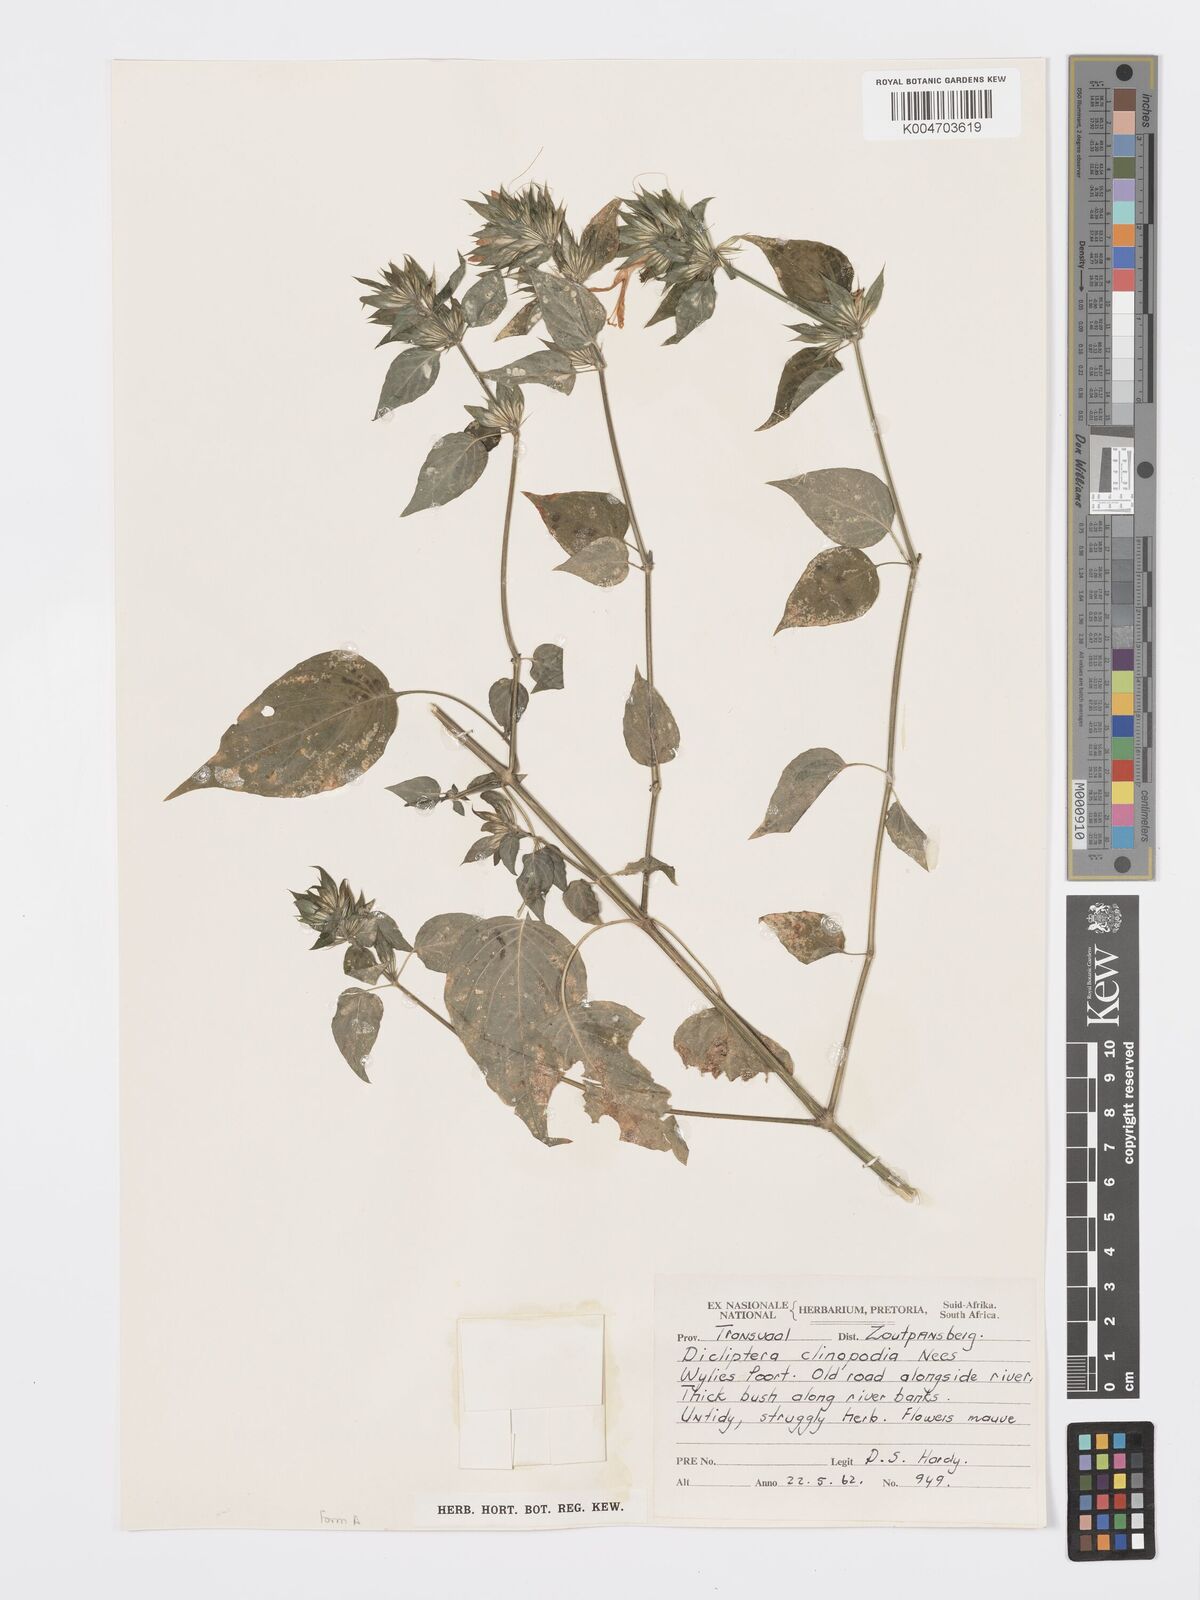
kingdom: Plantae
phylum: Tracheophyta
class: Magnoliopsida
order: Lamiales
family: Acanthaceae
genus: Dicliptera
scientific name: Dicliptera clinopodia
